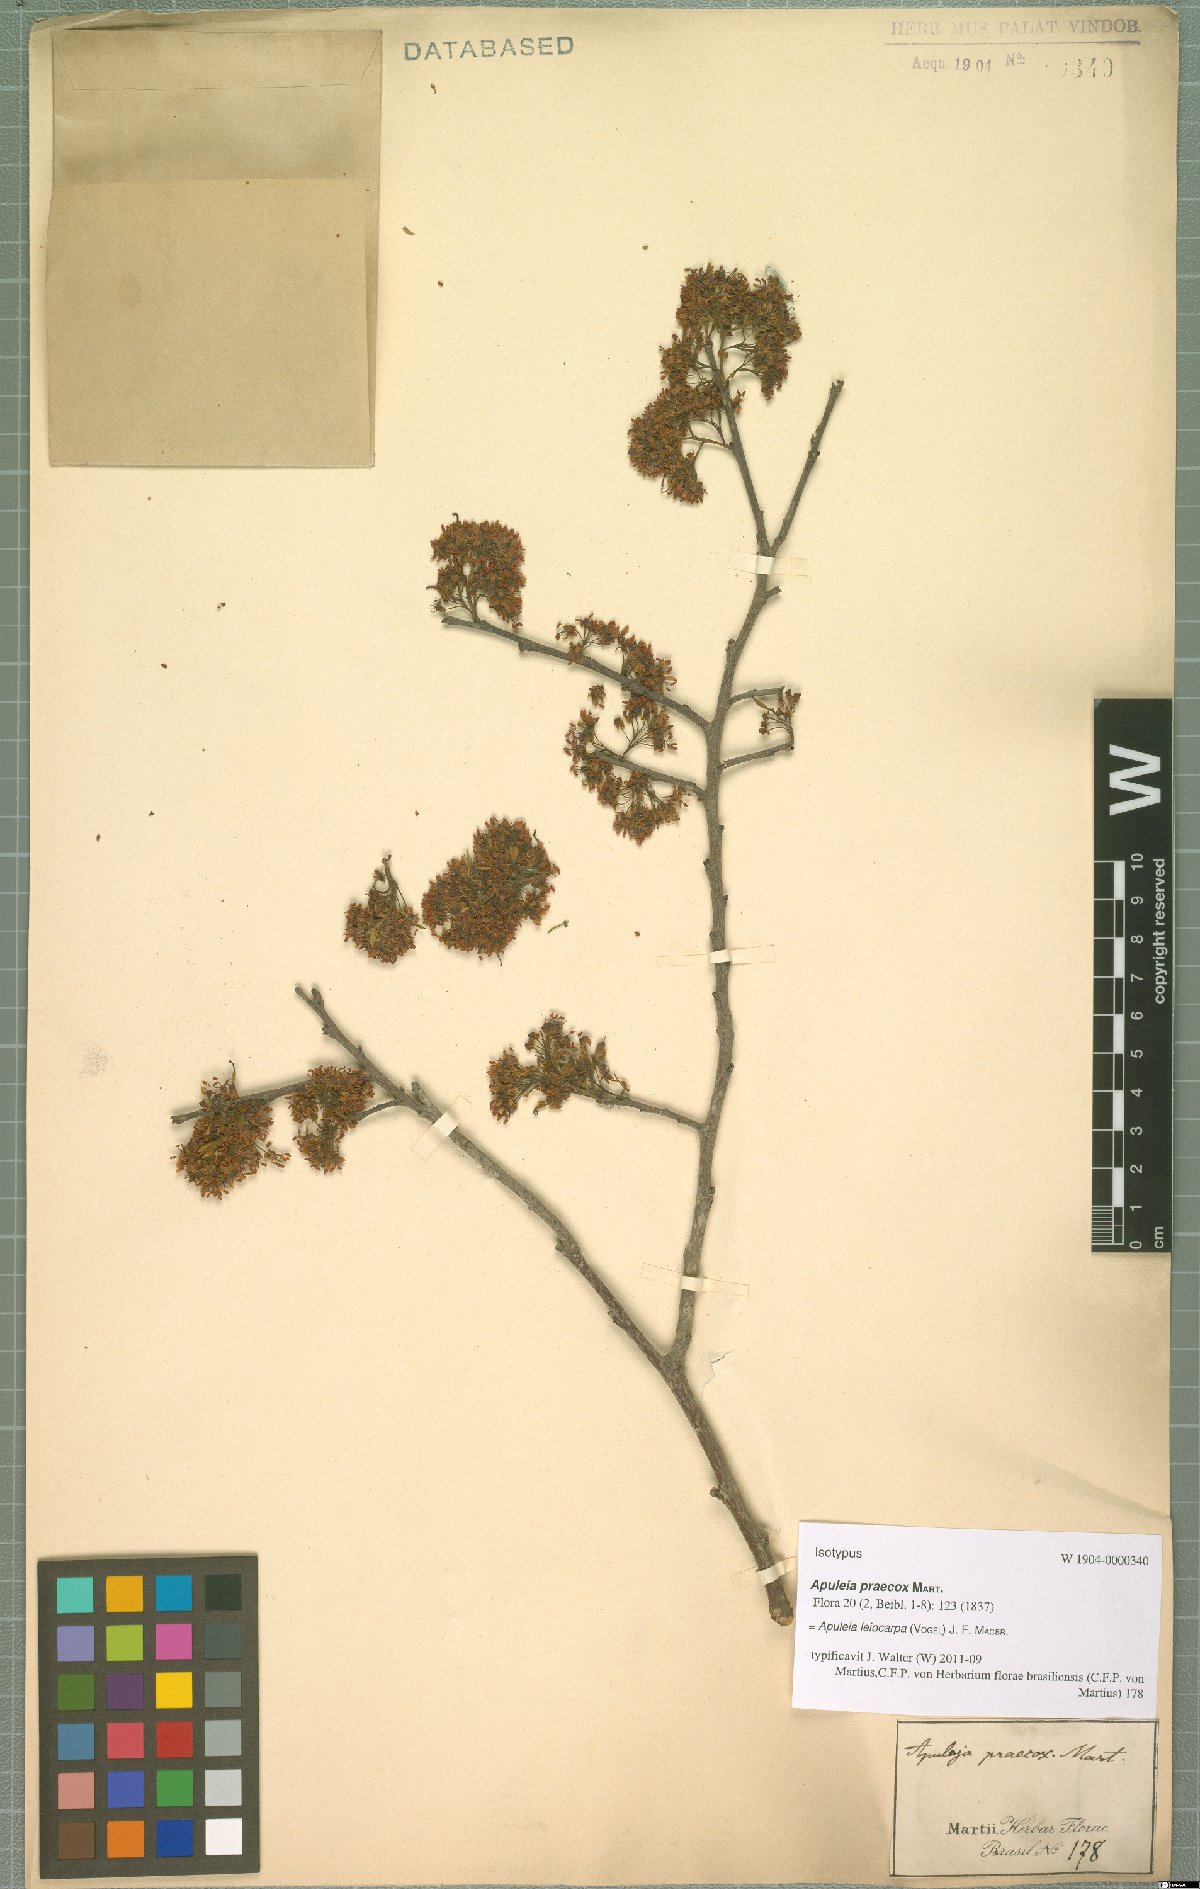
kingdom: Plantae
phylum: Tracheophyta
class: Magnoliopsida
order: Fabales
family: Fabaceae
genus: Apuleia
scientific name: Apuleia leiocarpa
